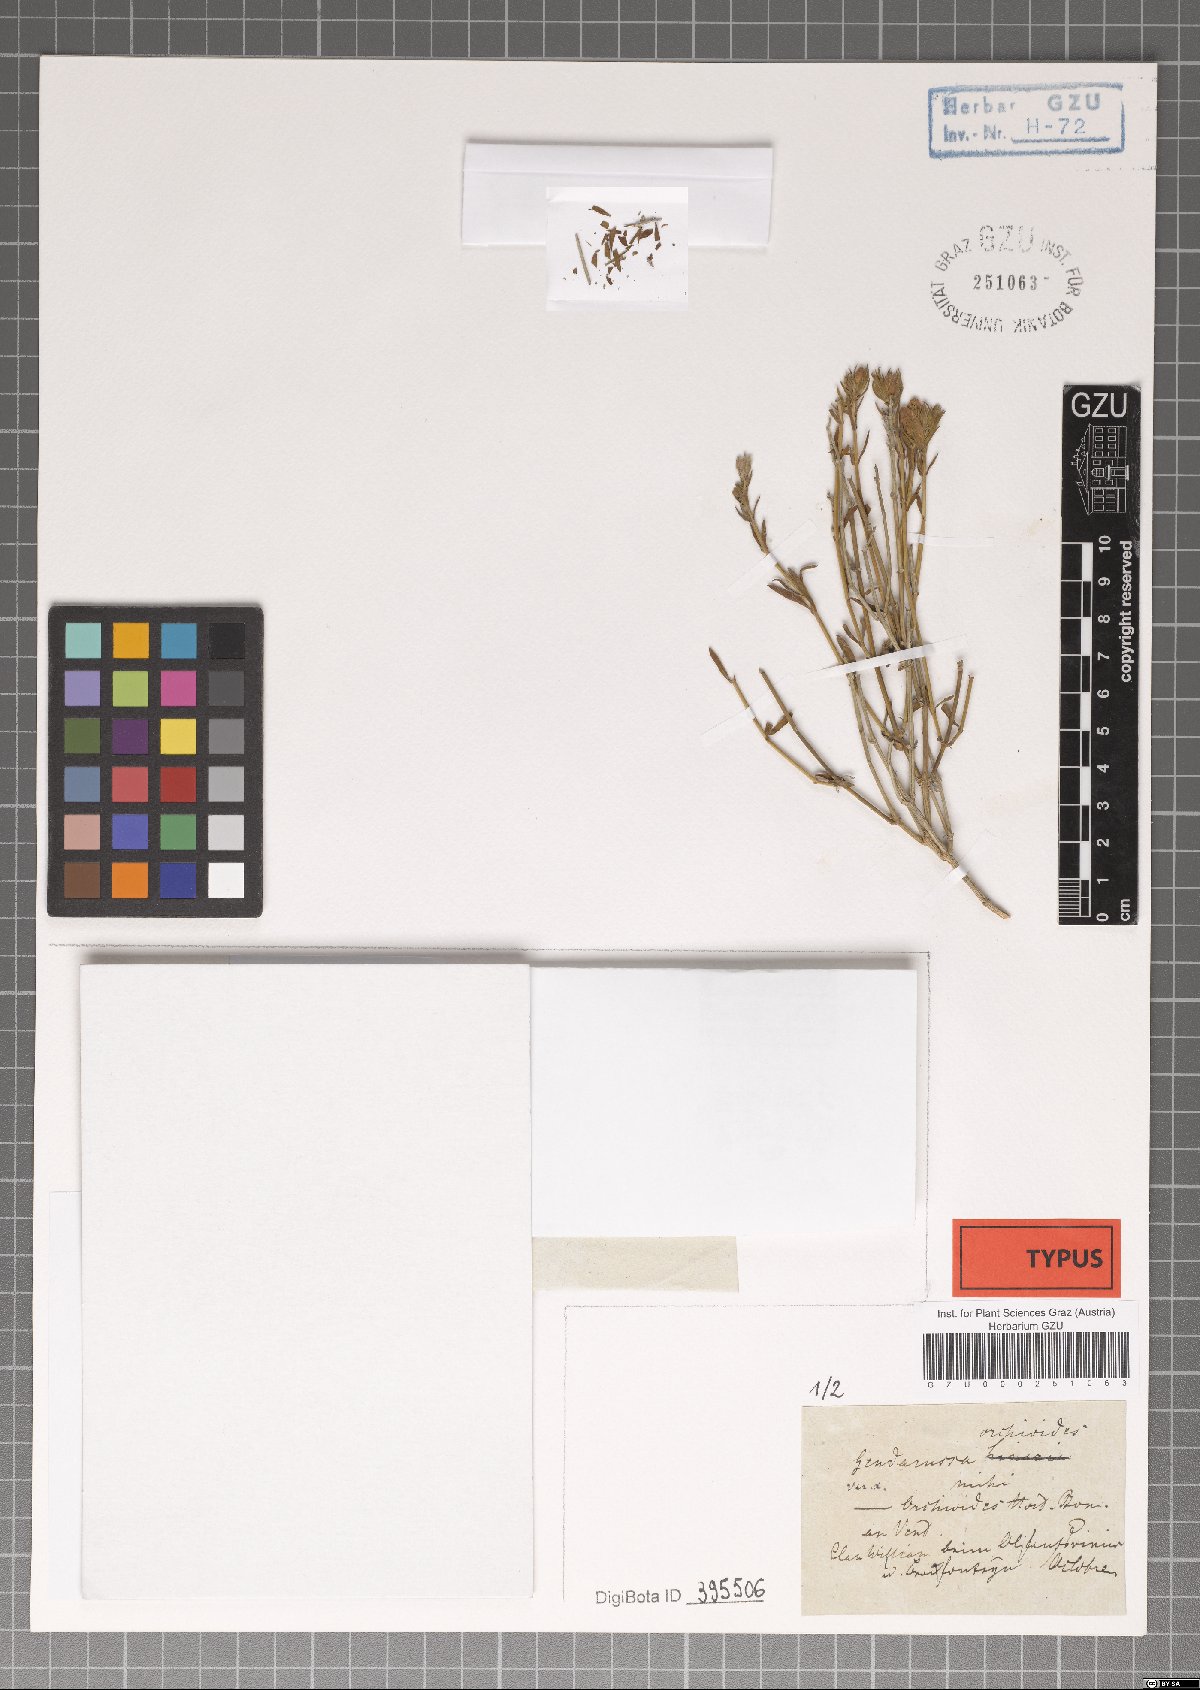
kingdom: Plantae
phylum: Tracheophyta
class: Magnoliopsida
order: Lamiales
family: Acanthaceae
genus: Justicia
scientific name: Justicia orchioides
